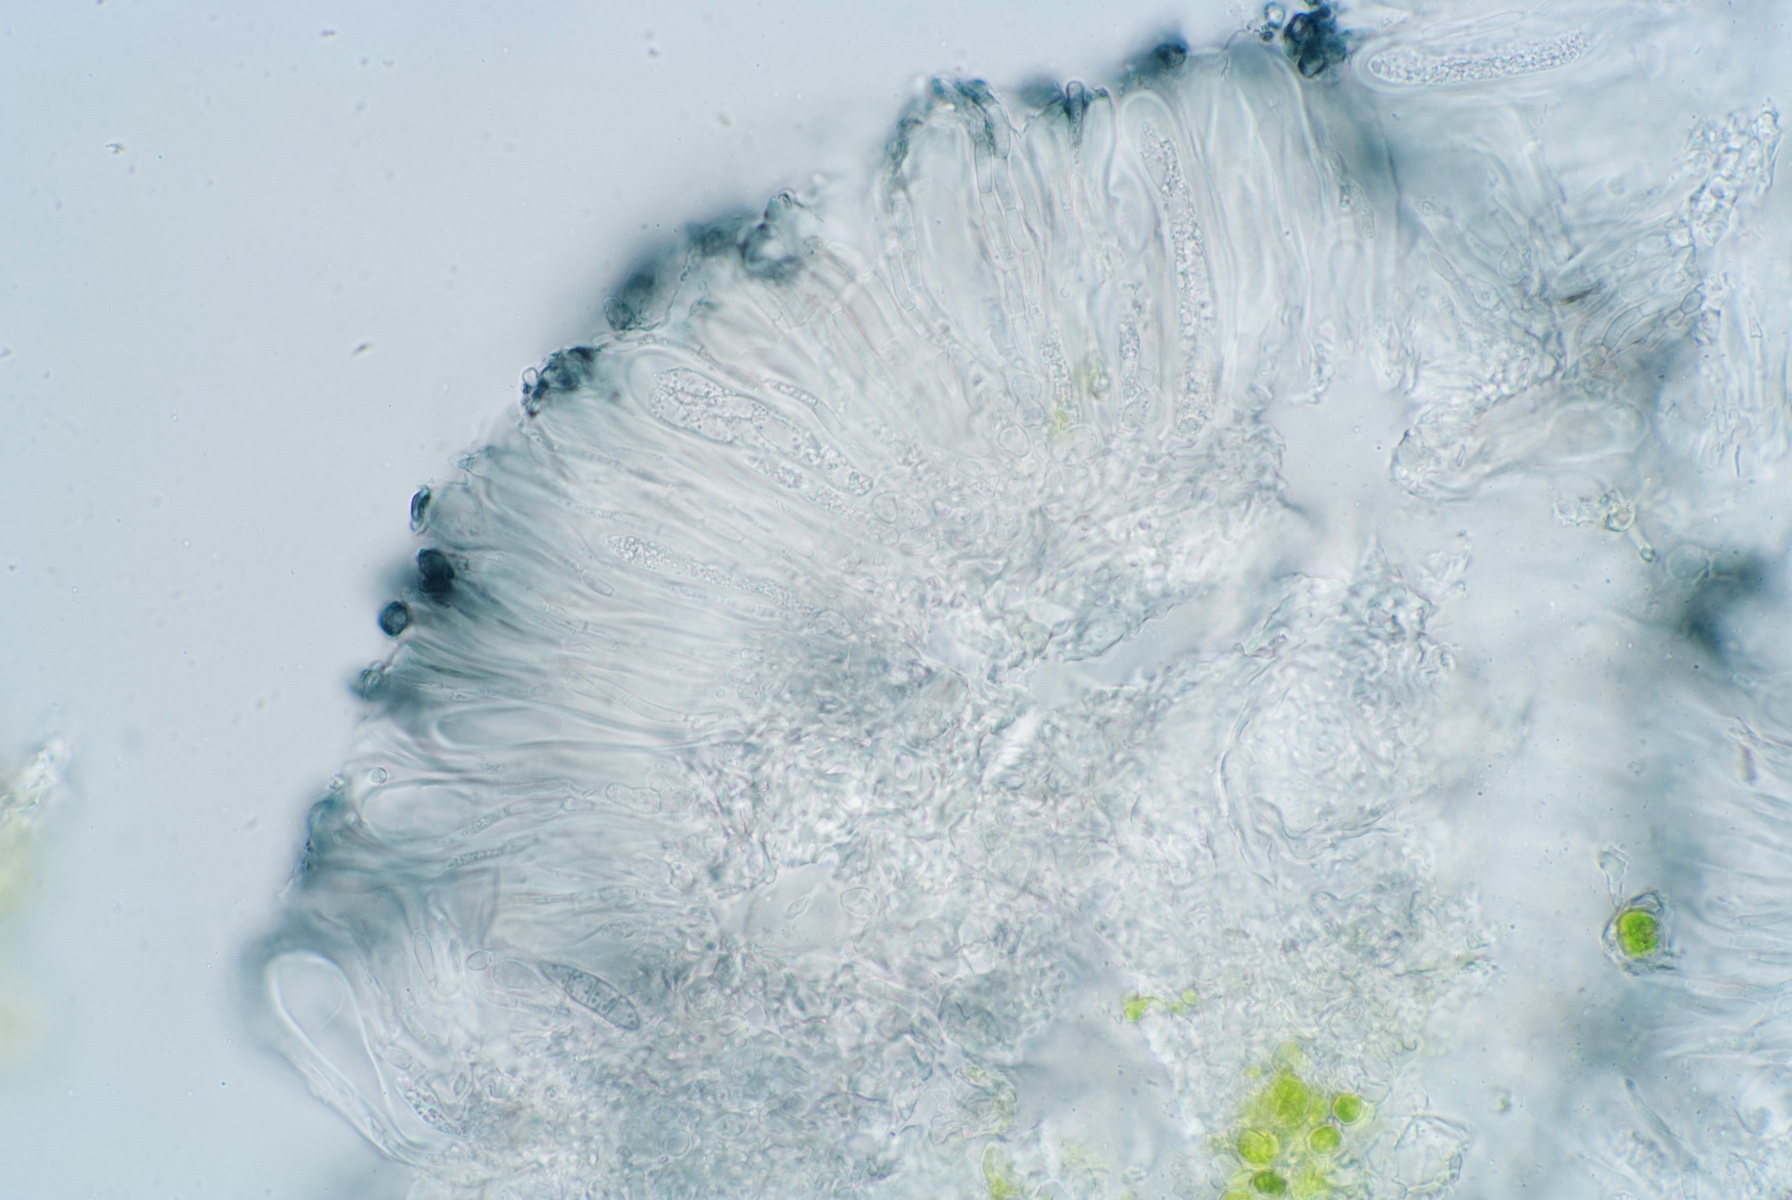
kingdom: Fungi
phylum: Ascomycota
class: Lecanoromycetes
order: Lecanorales
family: Ramalinaceae
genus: Lecania
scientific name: Lecania naegelii
